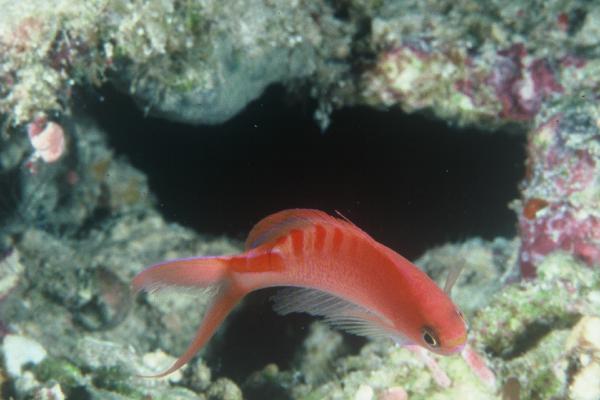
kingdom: Animalia
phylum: Chordata
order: Perciformes
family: Serranidae
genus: Pseudanthias
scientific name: Pseudanthias lori
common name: Lori's anthias
